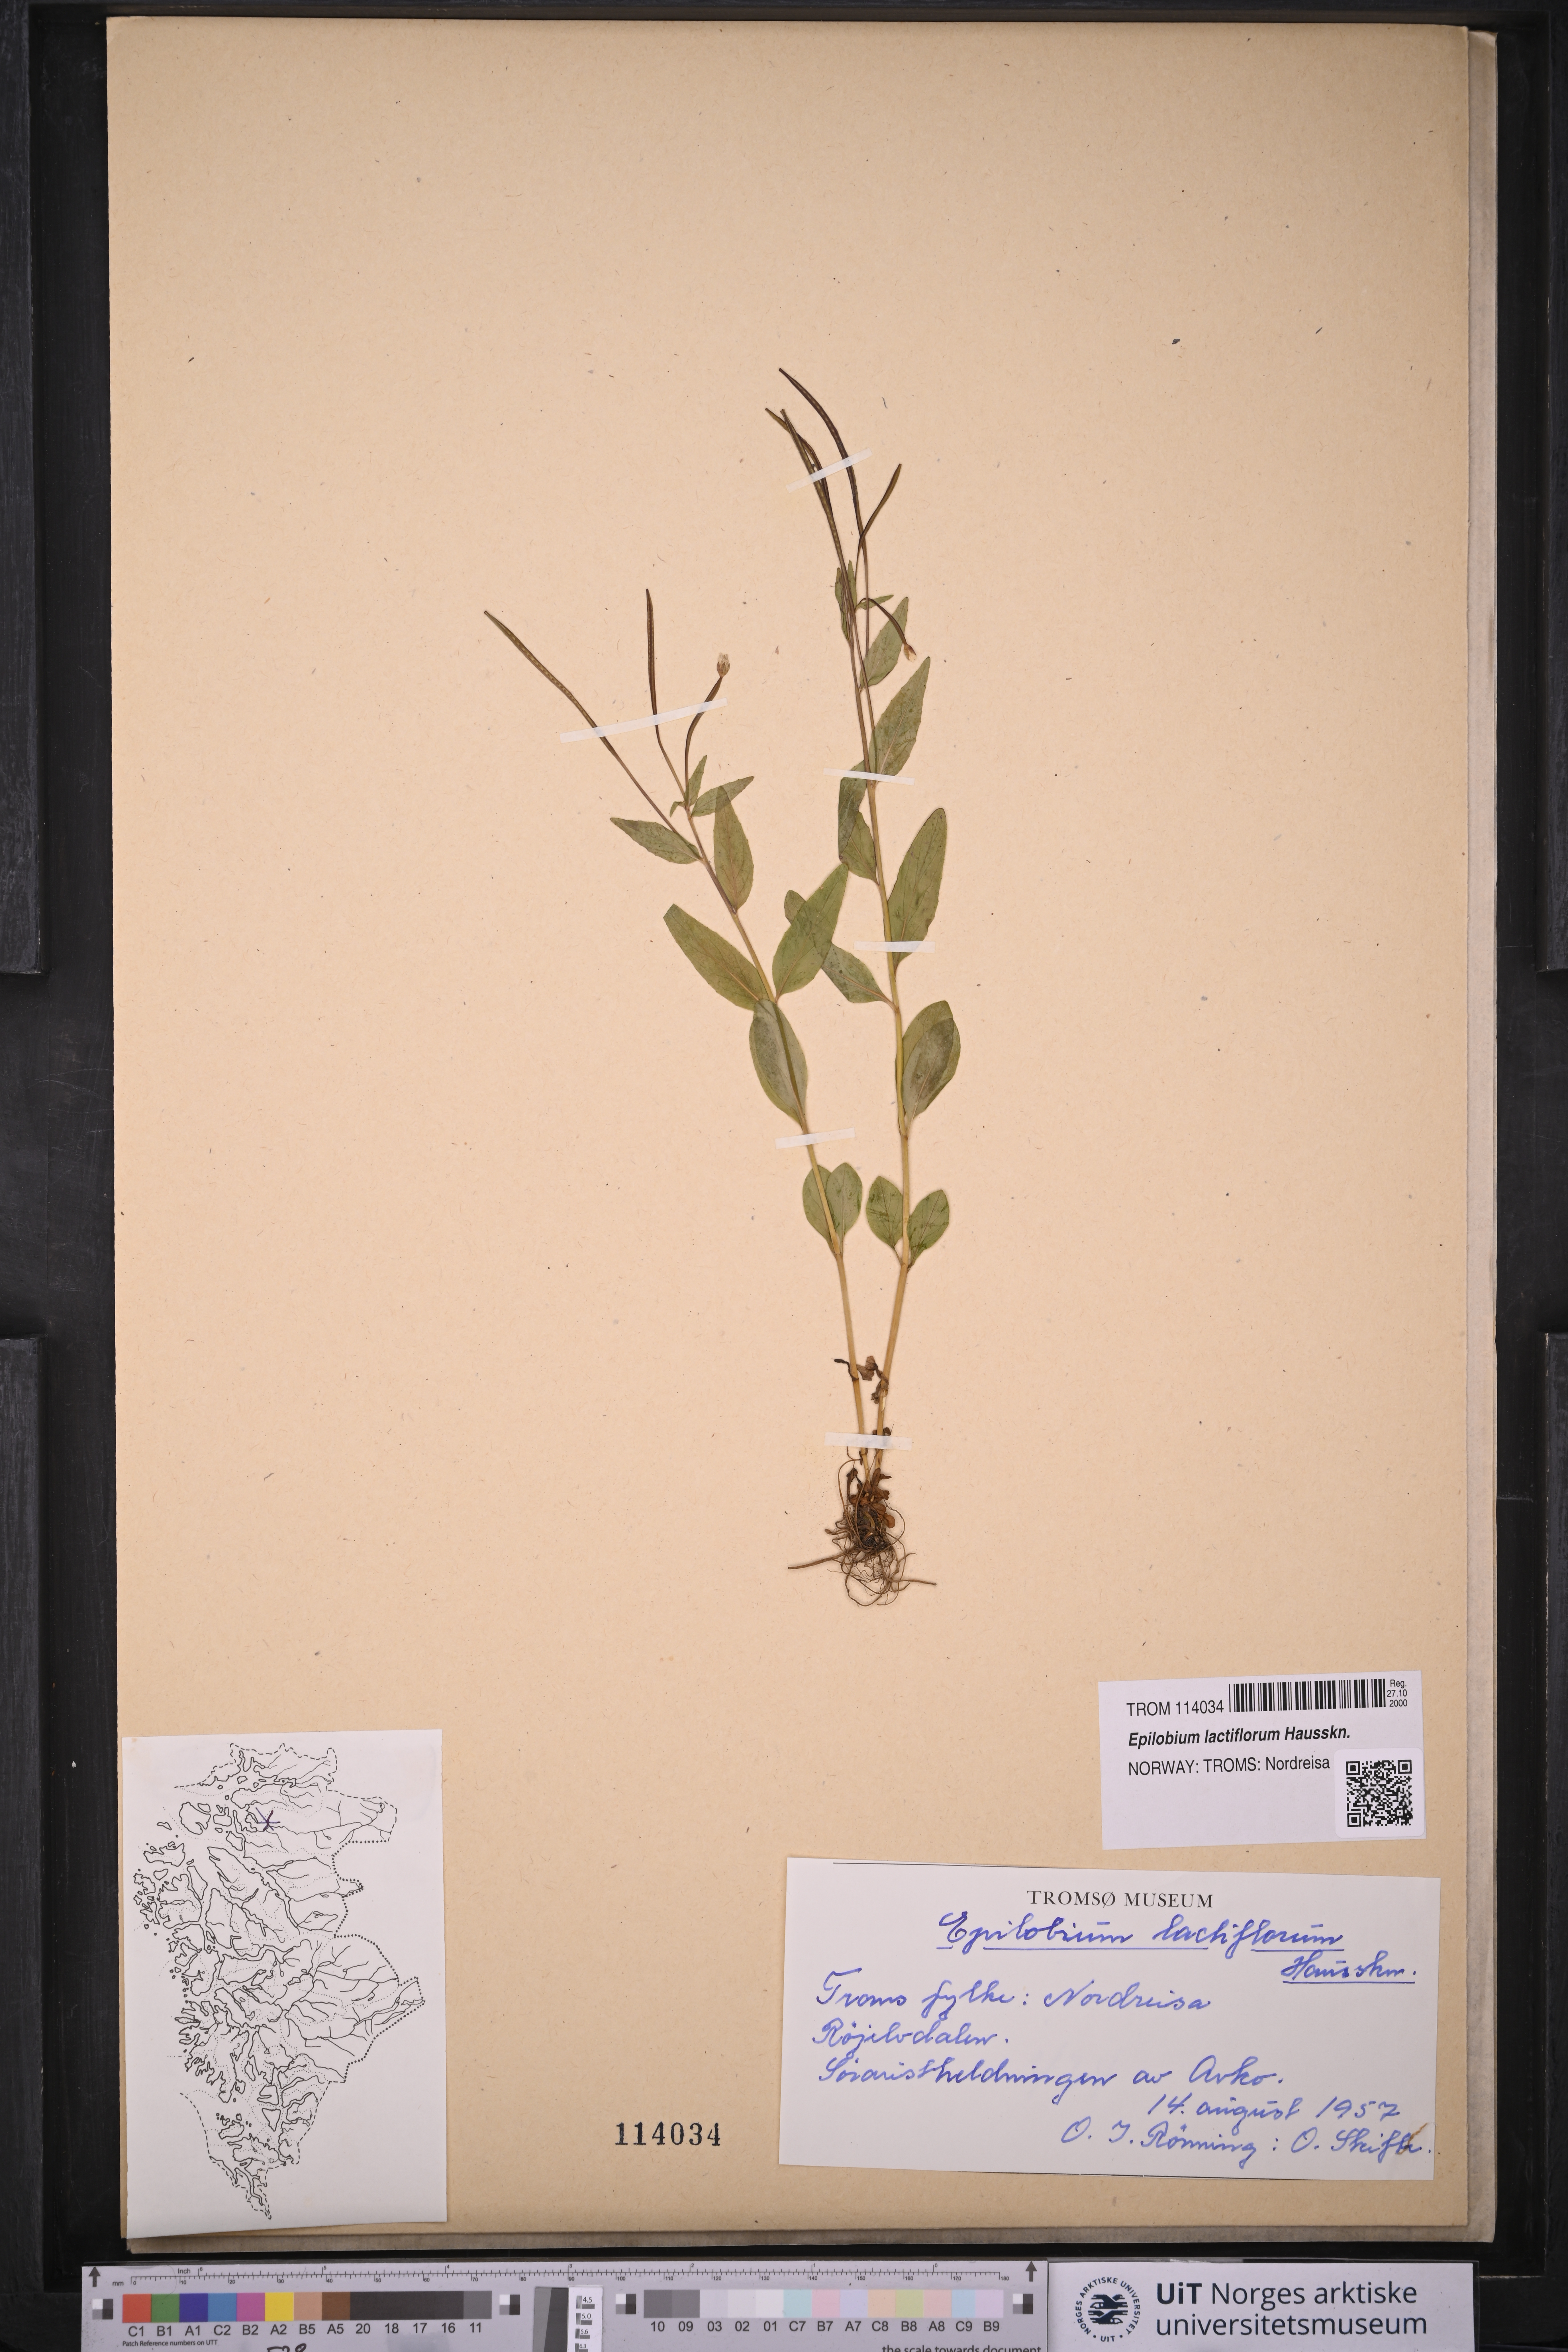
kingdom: Plantae
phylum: Tracheophyta
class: Magnoliopsida
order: Myrtales
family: Onagraceae
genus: Epilobium
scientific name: Epilobium lactiflorum
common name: Milkflower willowherb
